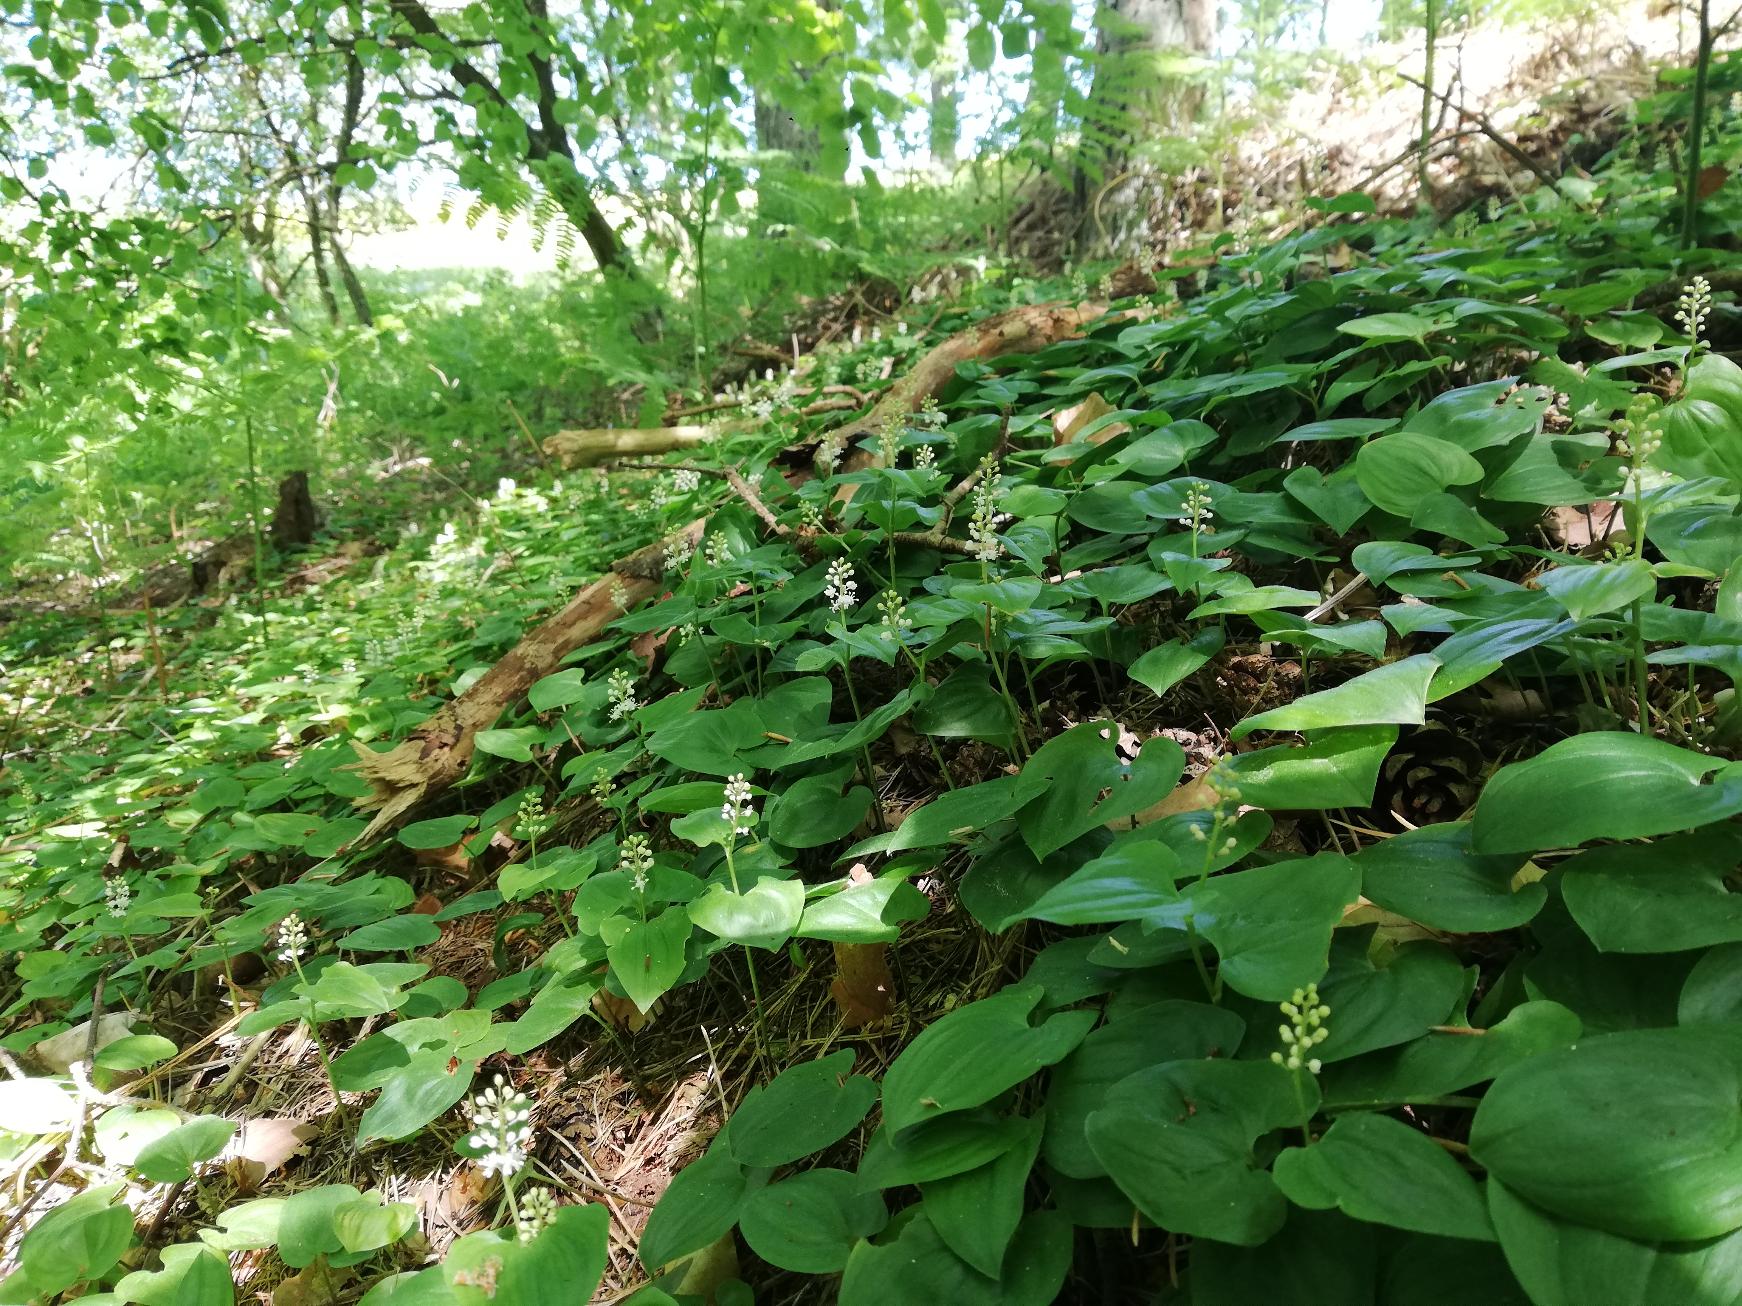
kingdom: Plantae
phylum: Tracheophyta
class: Liliopsida
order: Asparagales
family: Asparagaceae
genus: Maianthemum
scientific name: Maianthemum bifolium
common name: Majblomst
